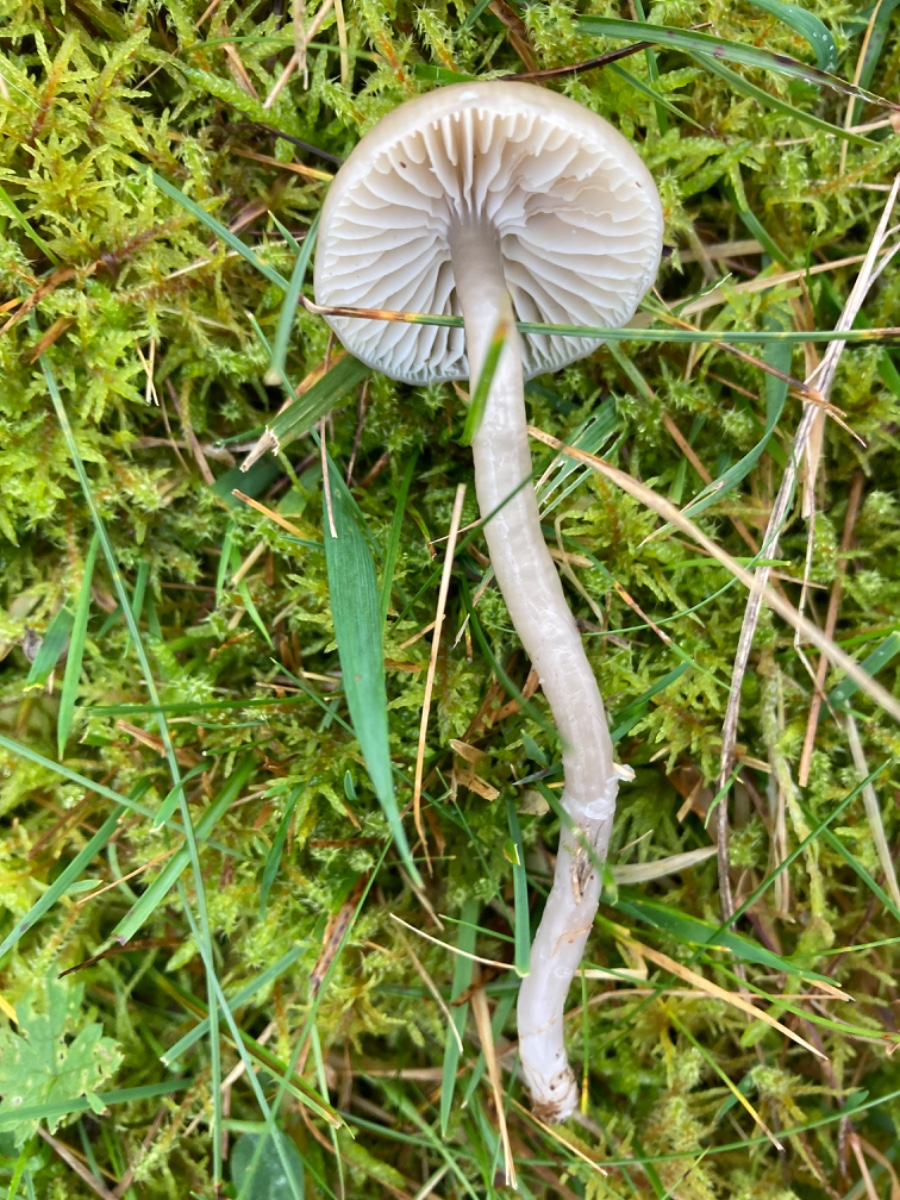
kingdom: Fungi
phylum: Basidiomycota
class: Agaricomycetes
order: Agaricales
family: Hygrophoraceae
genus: Gliophorus
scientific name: Gliophorus irrigatus
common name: slimet vokshat
